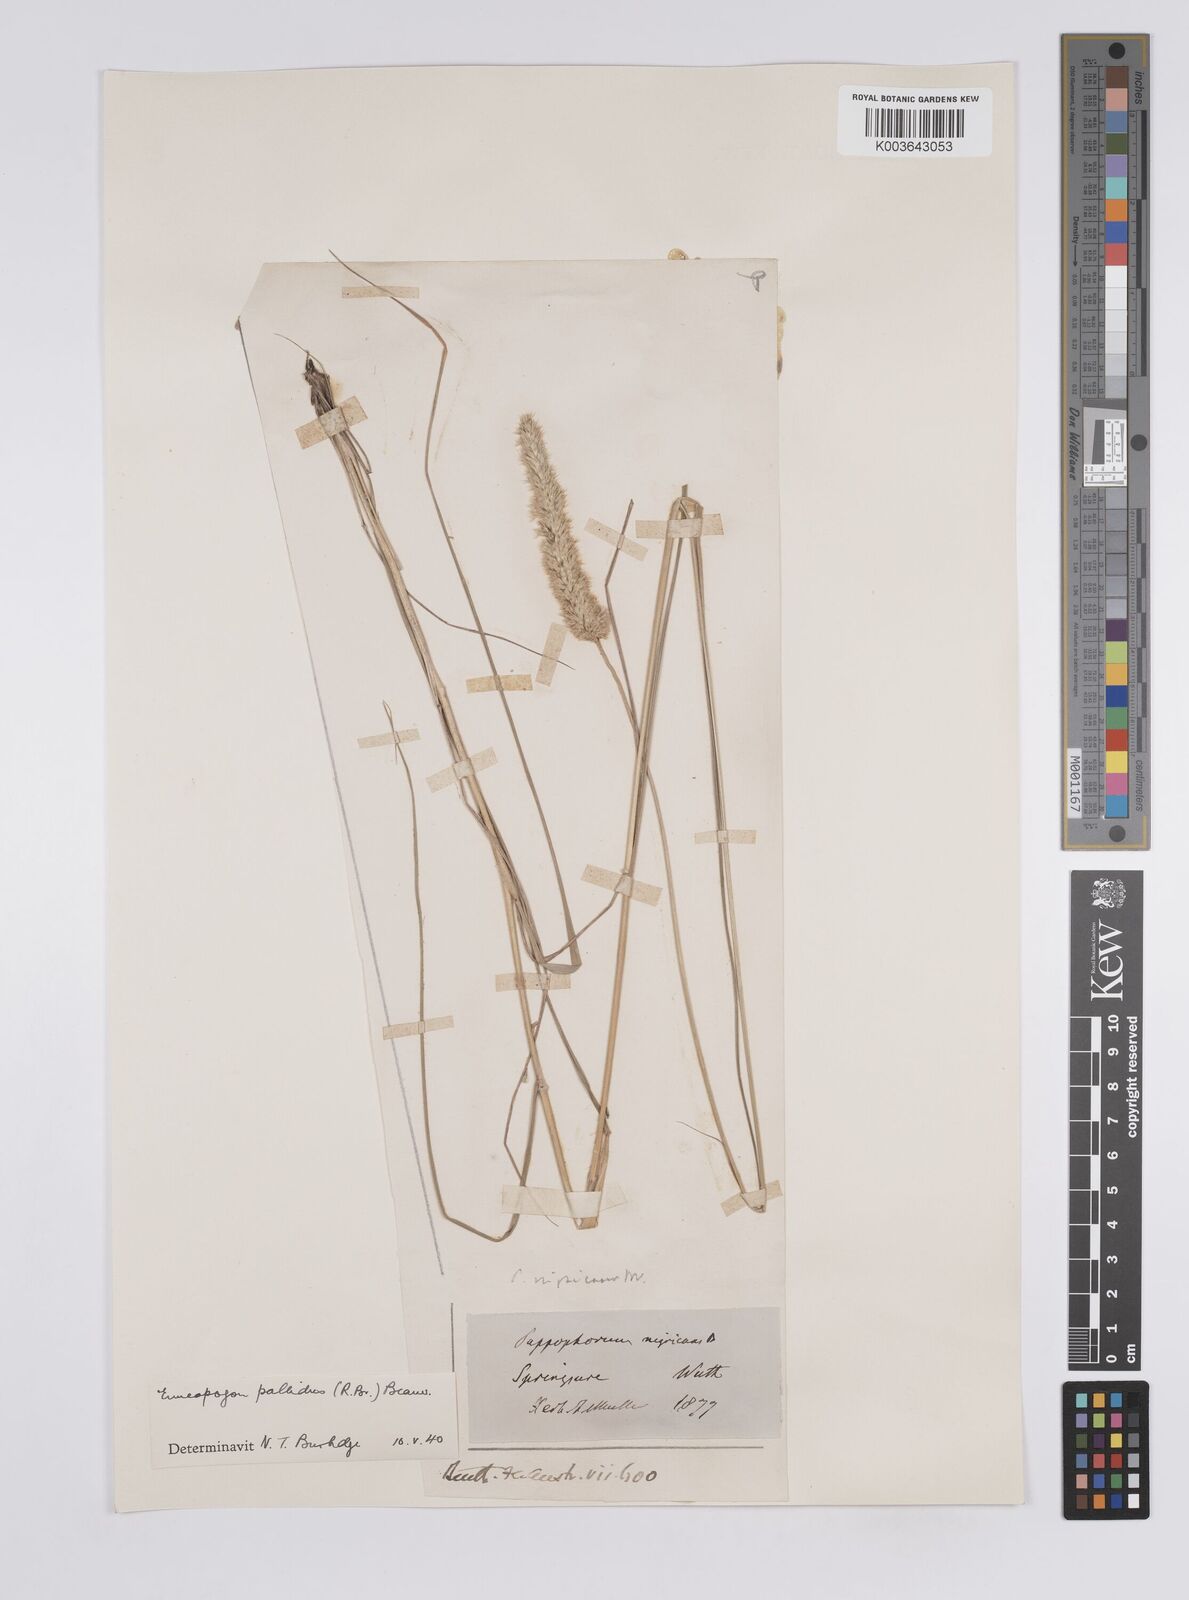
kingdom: Plantae
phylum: Tracheophyta
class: Liliopsida
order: Poales
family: Poaceae
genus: Enneapogon
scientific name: Enneapogon pallidus
